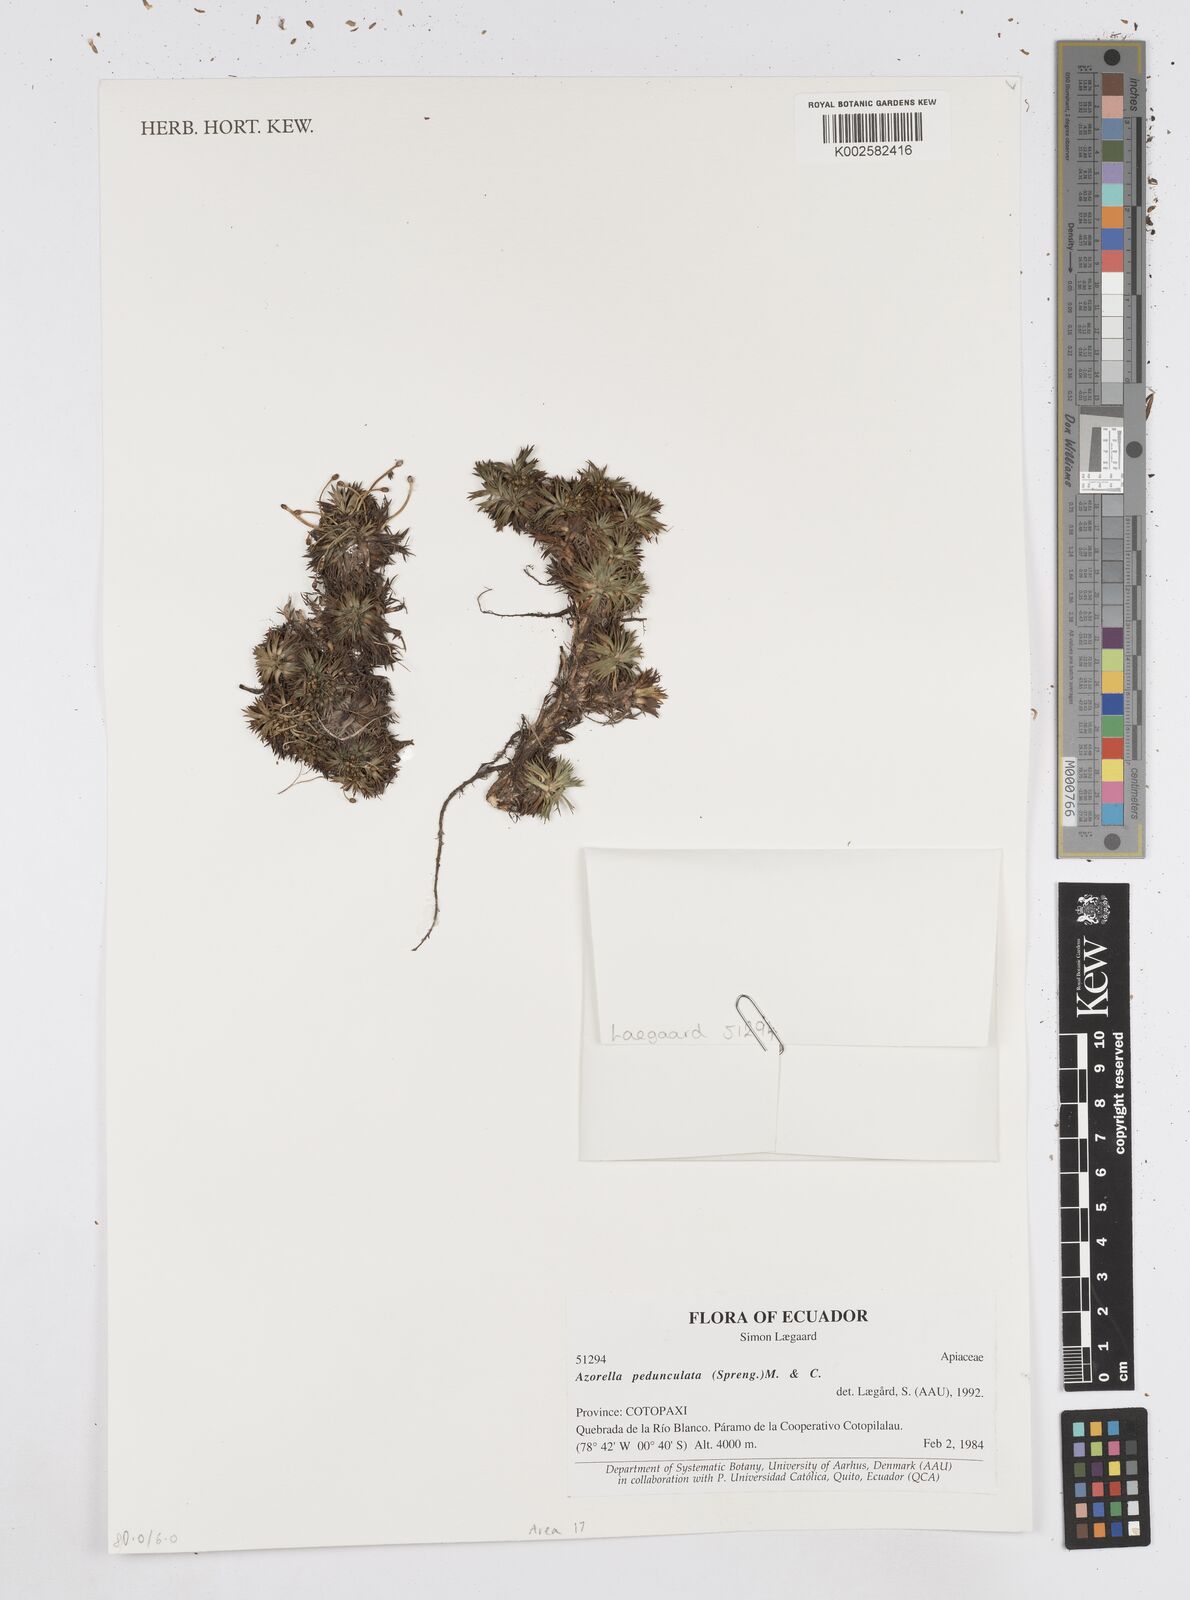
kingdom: Plantae
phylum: Tracheophyta
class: Magnoliopsida
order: Apiales
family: Apiaceae
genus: Azorella
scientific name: Azorella pedunculata
